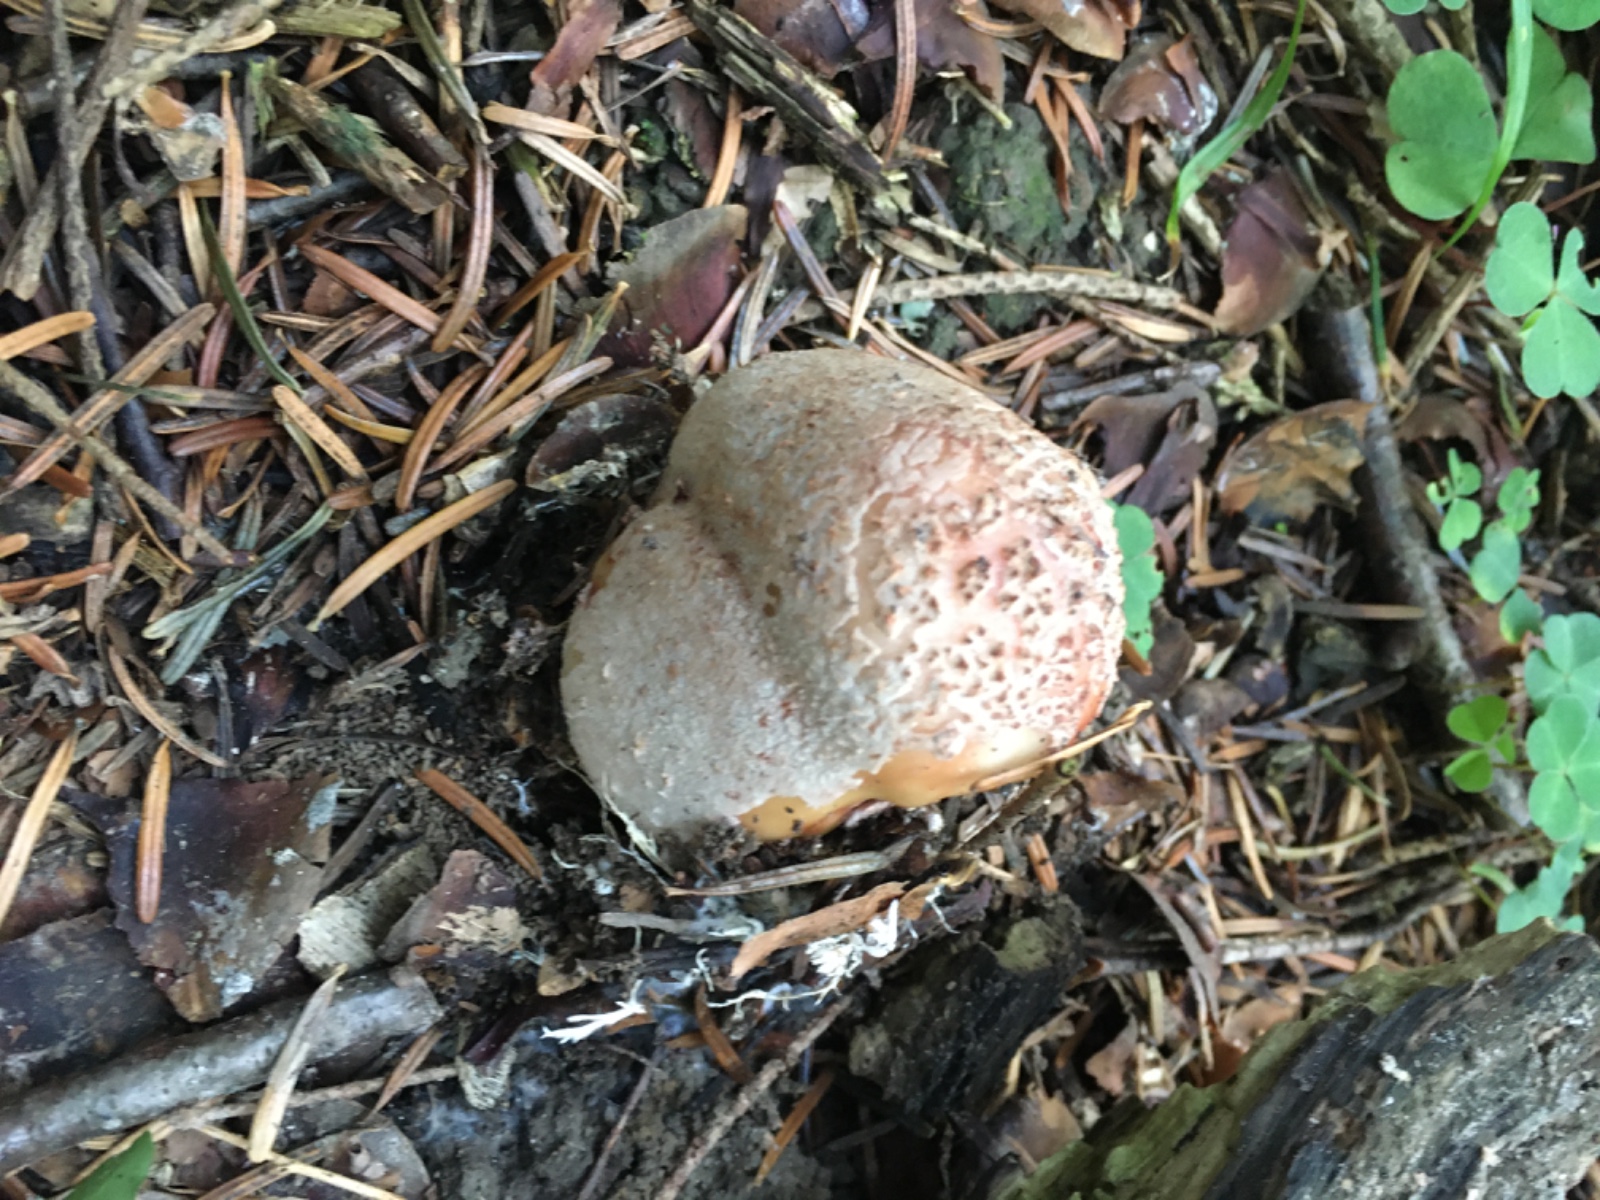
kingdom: Fungi
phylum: Basidiomycota
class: Agaricomycetes
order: Agaricales
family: Amanitaceae
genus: Amanita
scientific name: Amanita rubescens
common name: rødmende fluesvamp
